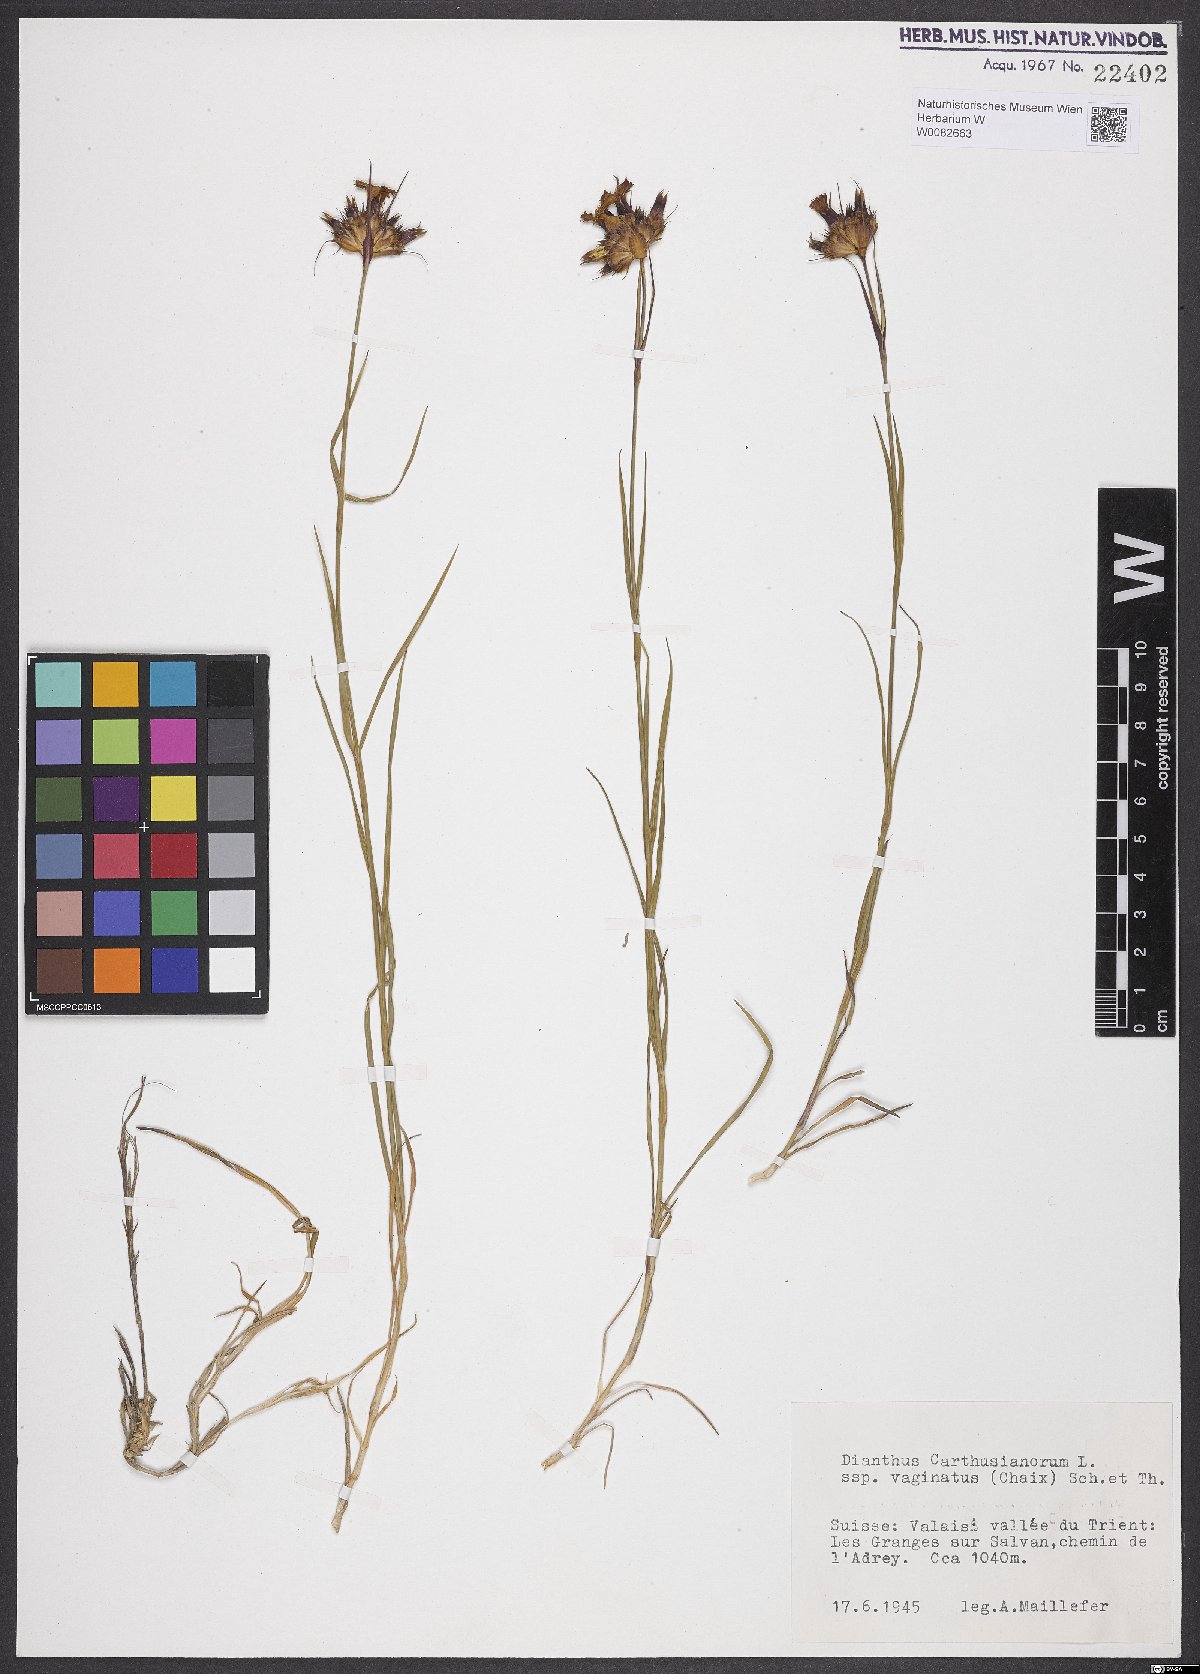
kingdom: Plantae
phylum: Tracheophyta
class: Magnoliopsida
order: Caryophyllales
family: Caryophyllaceae
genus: Dianthus
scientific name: Dianthus carthusianorum
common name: Carthusian pink
